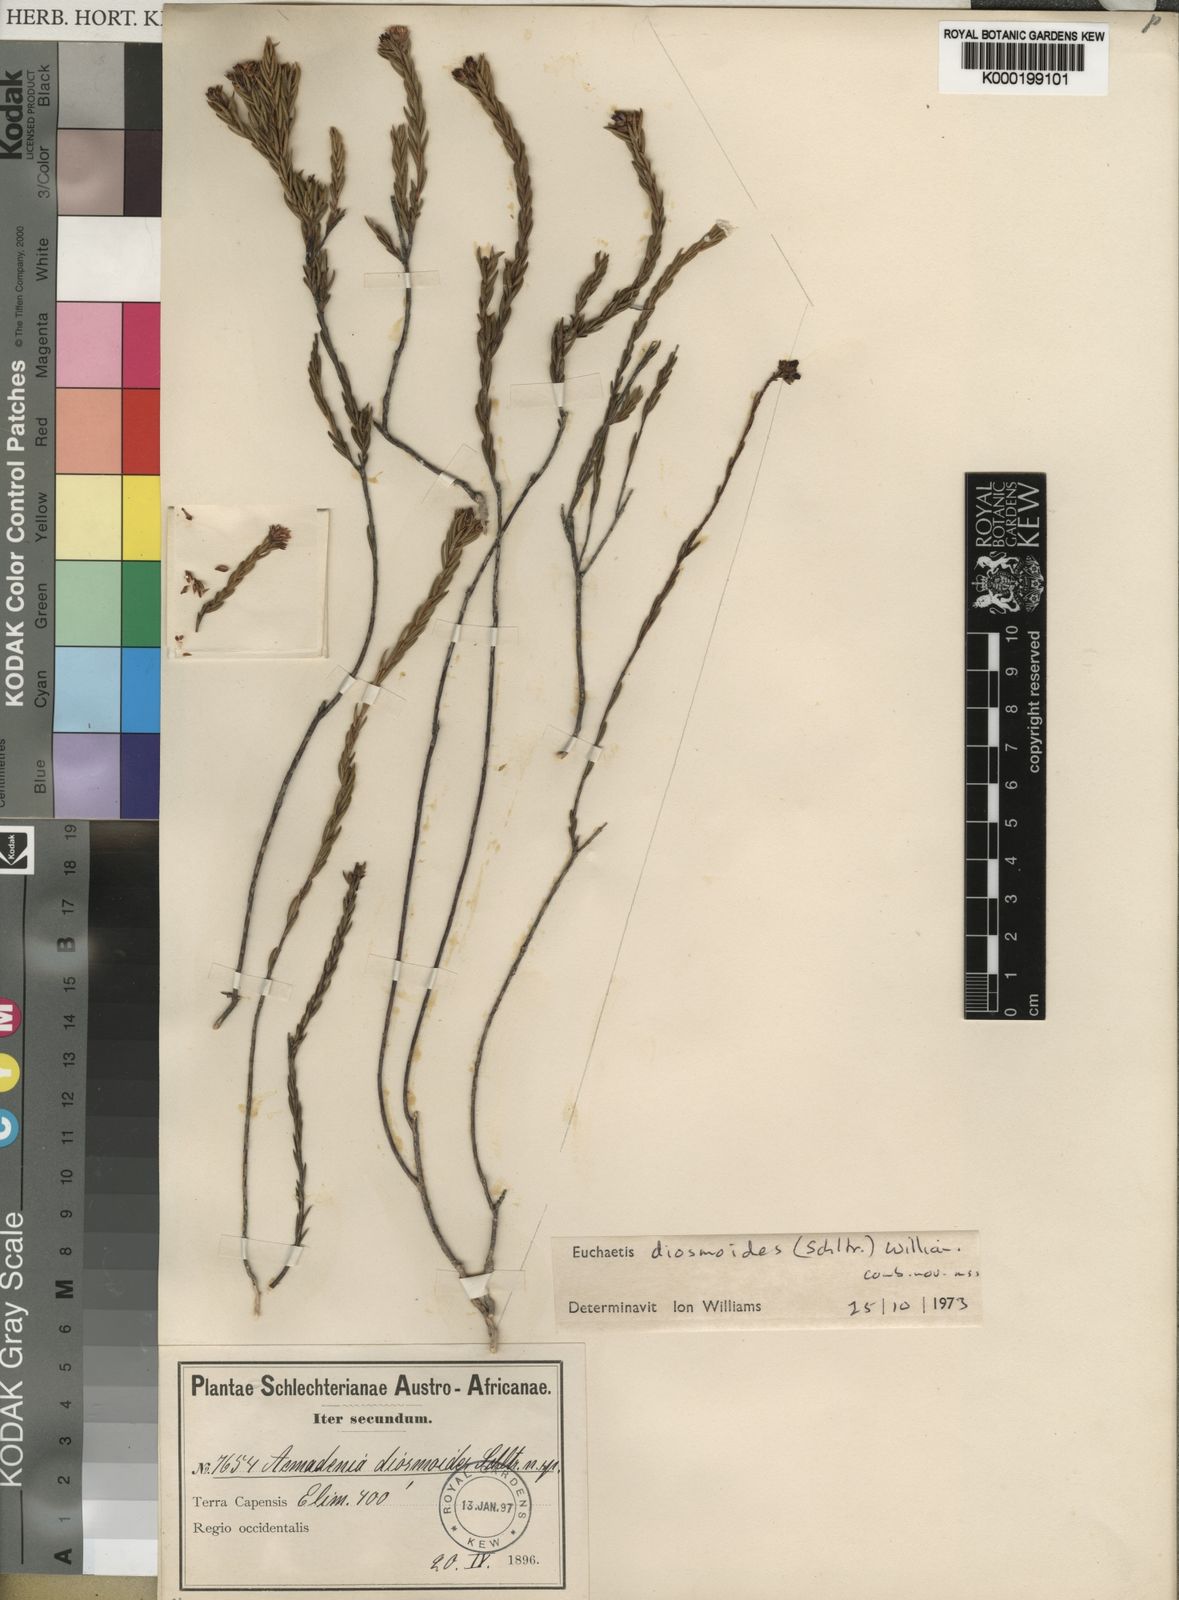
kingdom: Plantae
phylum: Tracheophyta
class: Magnoliopsida
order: Sapindales
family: Rutaceae
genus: Euchaetis
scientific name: Euchaetis diosmoides
